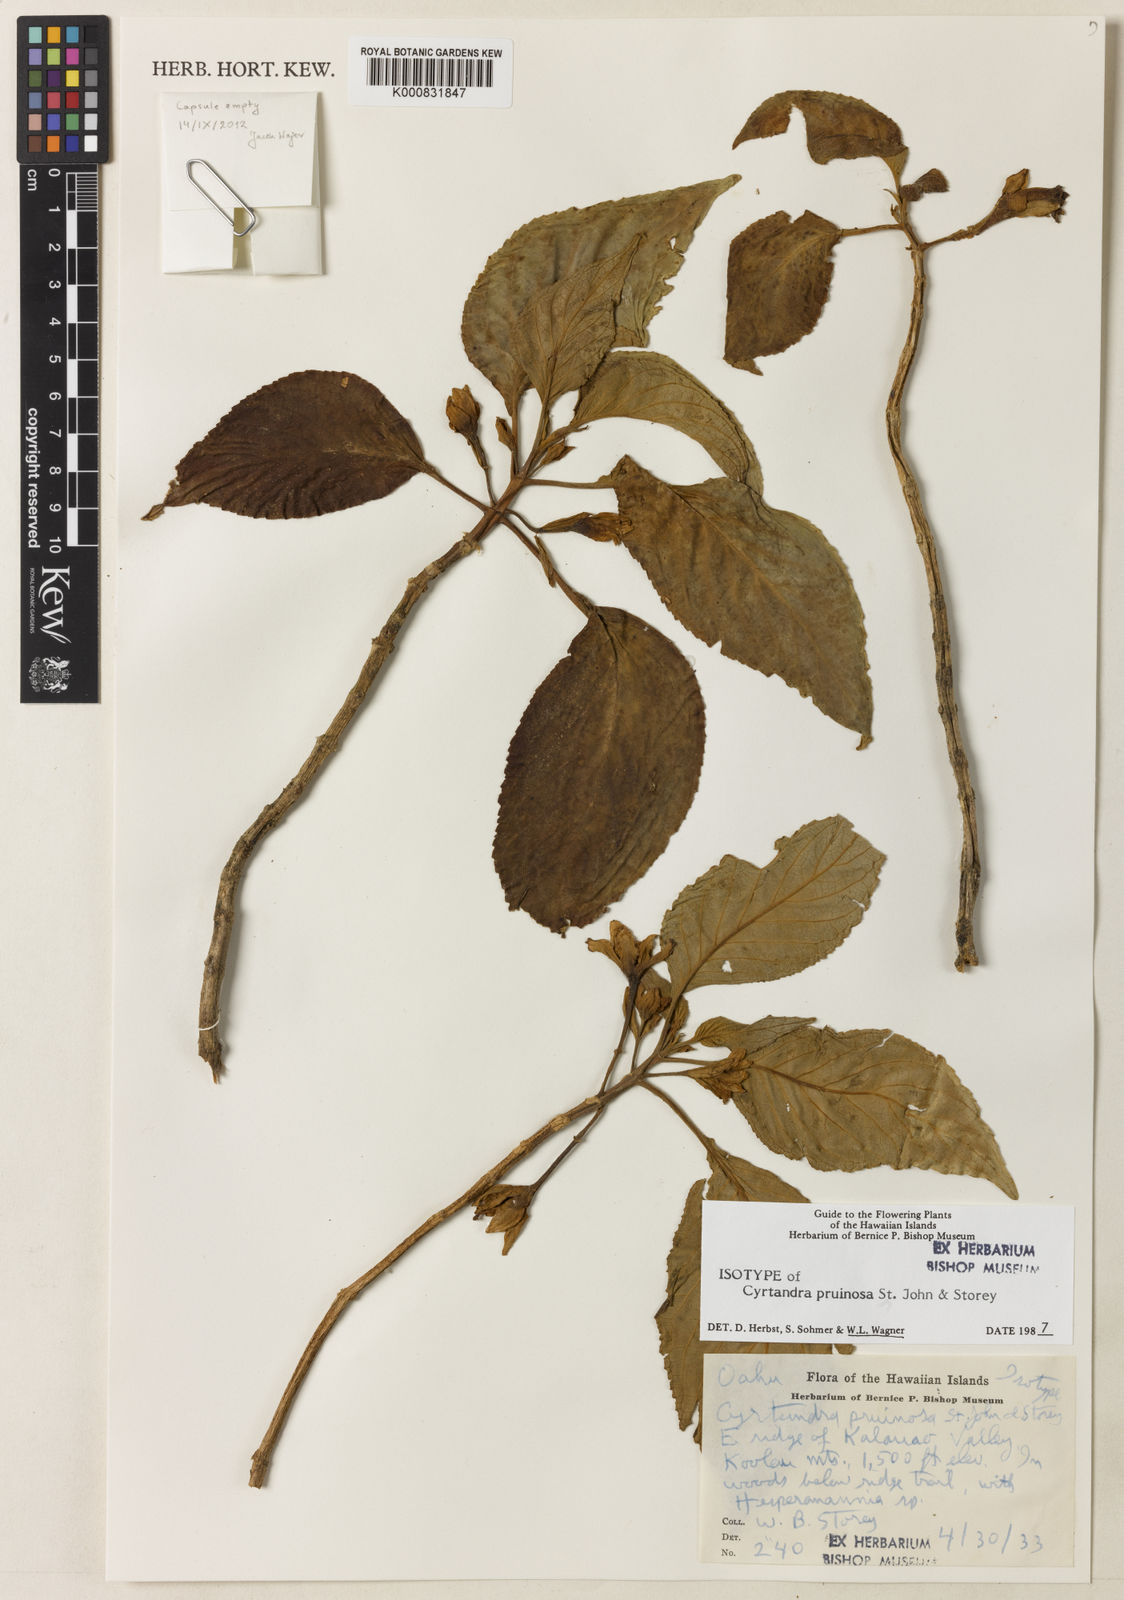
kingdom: Plantae
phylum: Tracheophyta
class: Magnoliopsida
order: Lamiales
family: Gesneriaceae
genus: Cyrtandra
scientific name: Cyrtandra pruinosa
